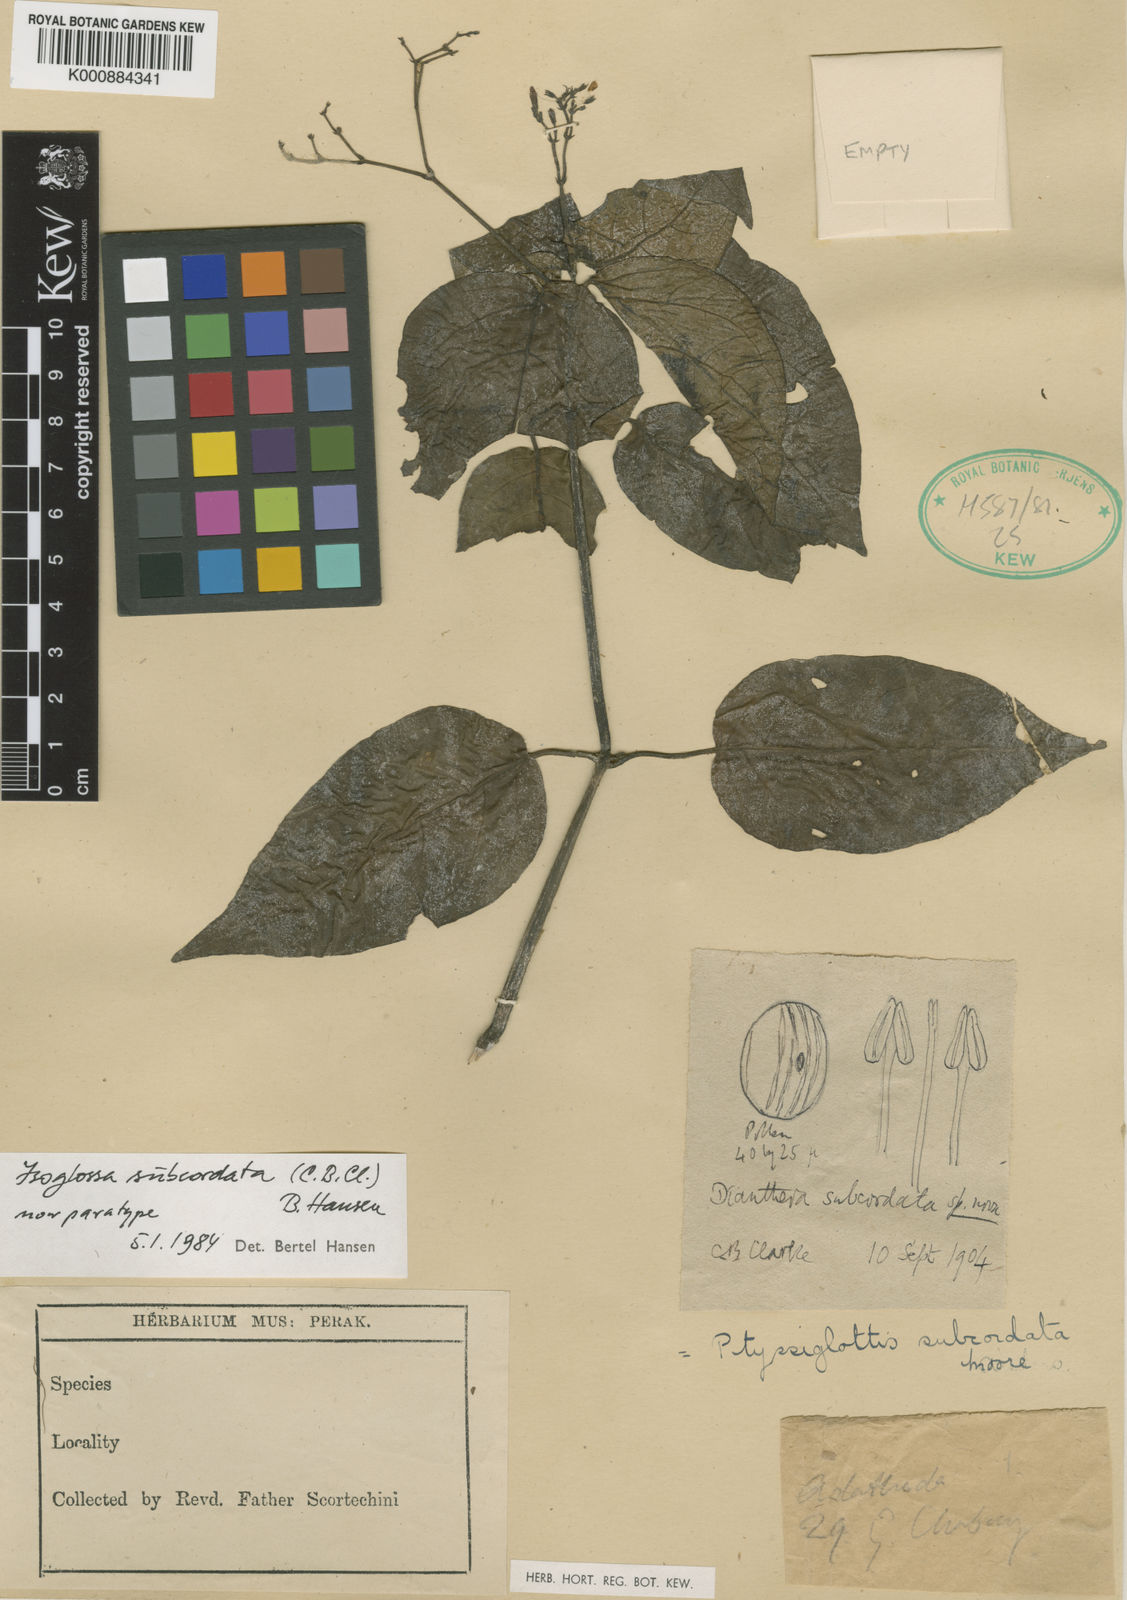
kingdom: Plantae
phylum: Tracheophyta
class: Magnoliopsida
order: Lamiales
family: Acanthaceae
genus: Ptyssiglottis
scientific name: Ptyssiglottis subcordata
